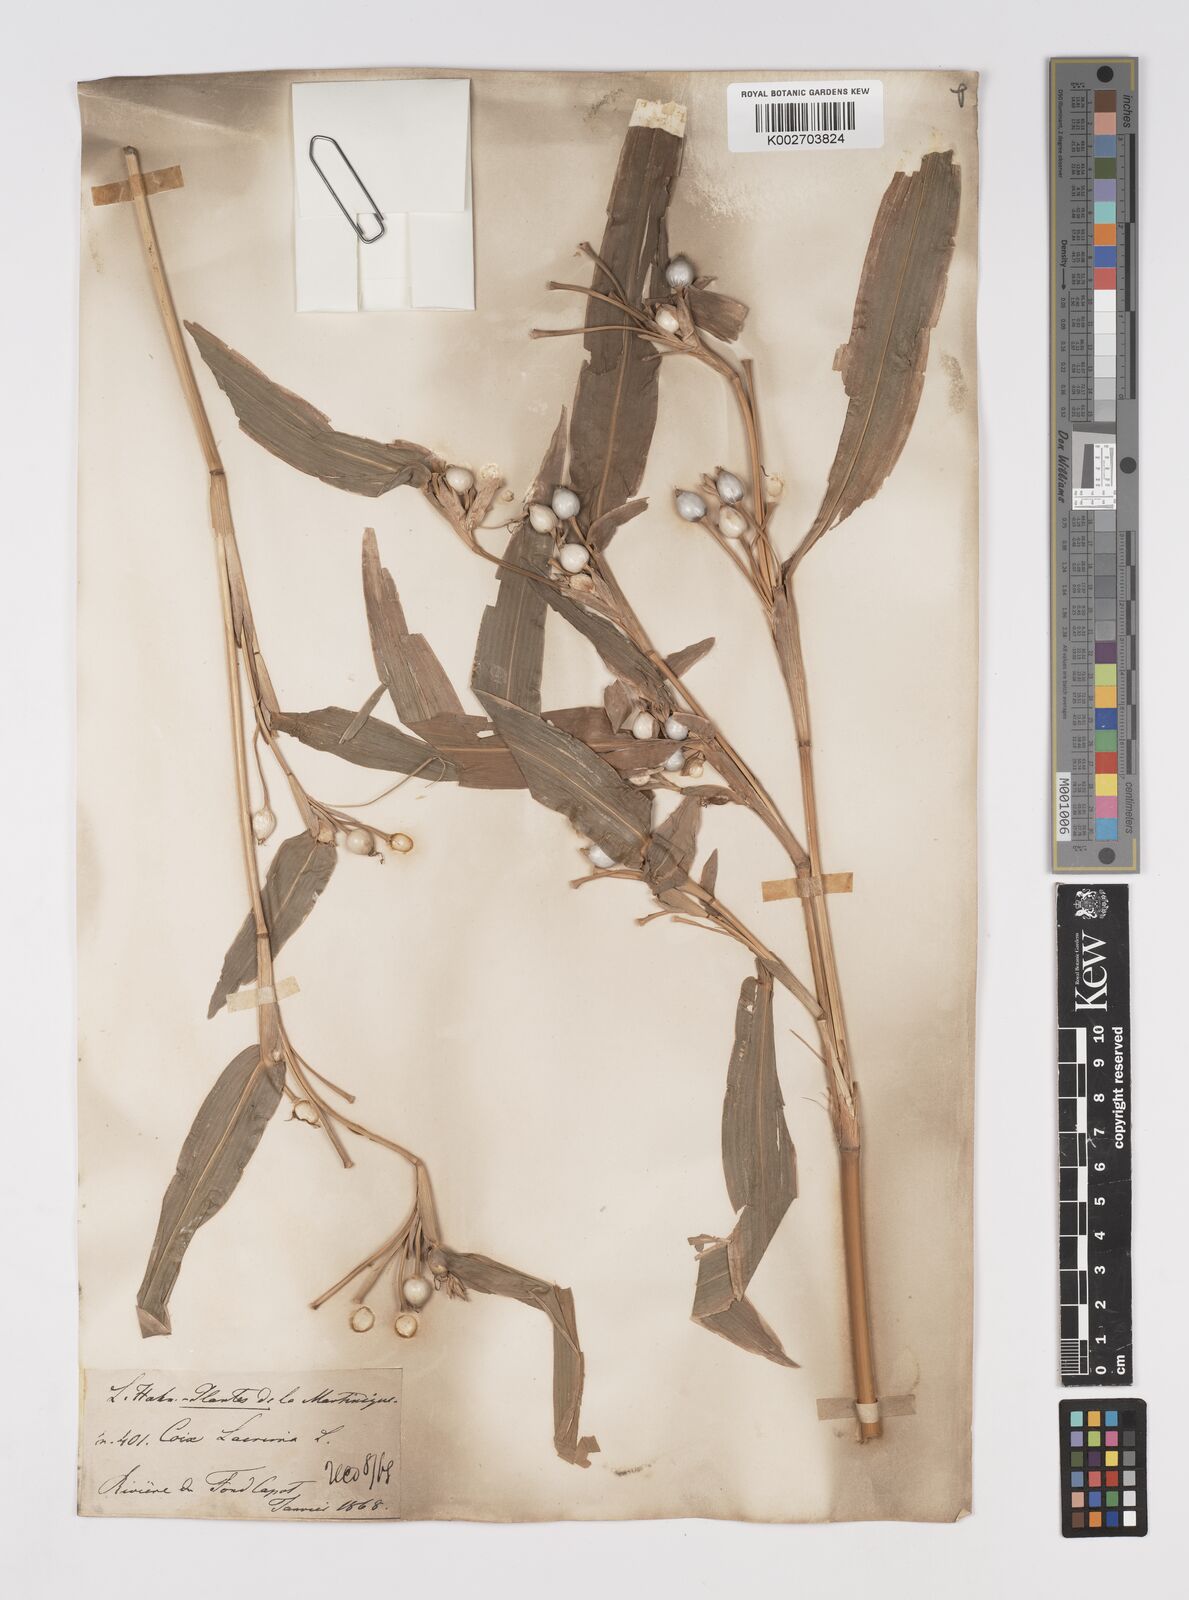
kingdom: Plantae
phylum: Tracheophyta
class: Liliopsida
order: Poales
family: Poaceae
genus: Coix
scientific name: Coix lacryma-jobi
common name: Job's tears
